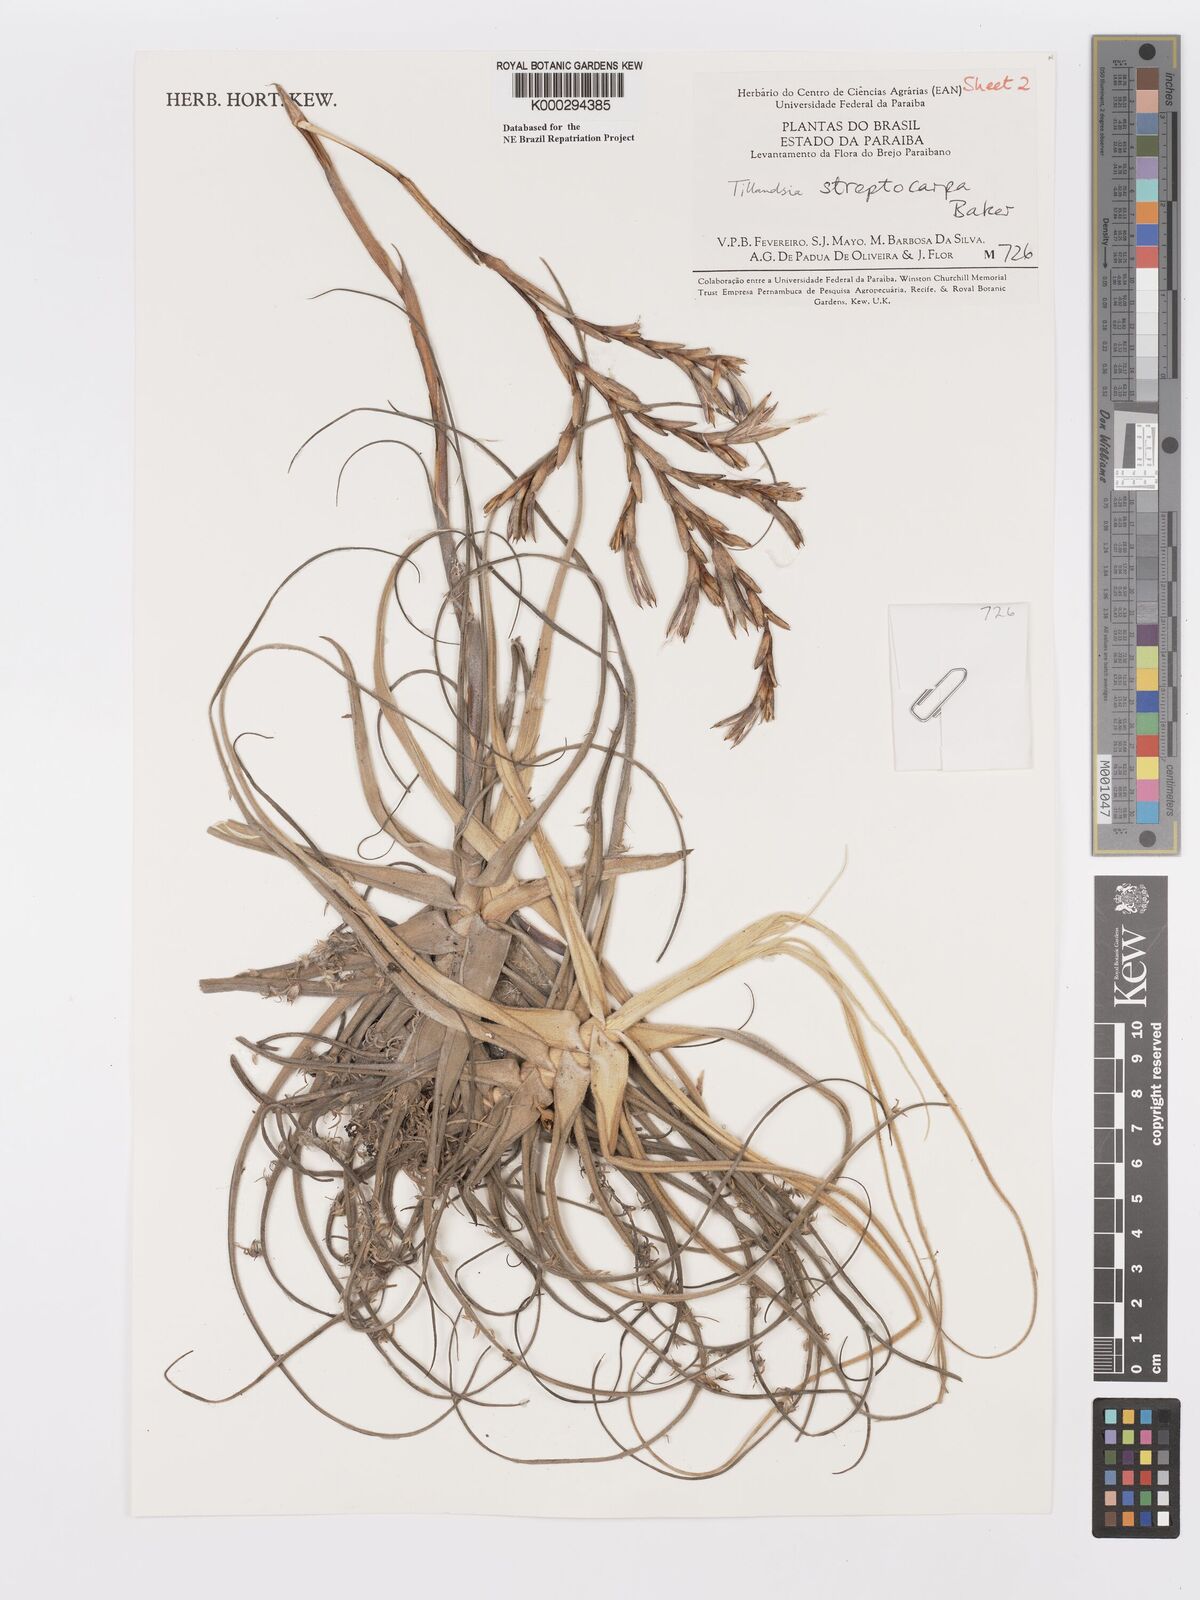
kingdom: Plantae
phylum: Tracheophyta
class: Liliopsida
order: Poales
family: Bromeliaceae
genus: Tillandsia
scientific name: Tillandsia streptocarpa
